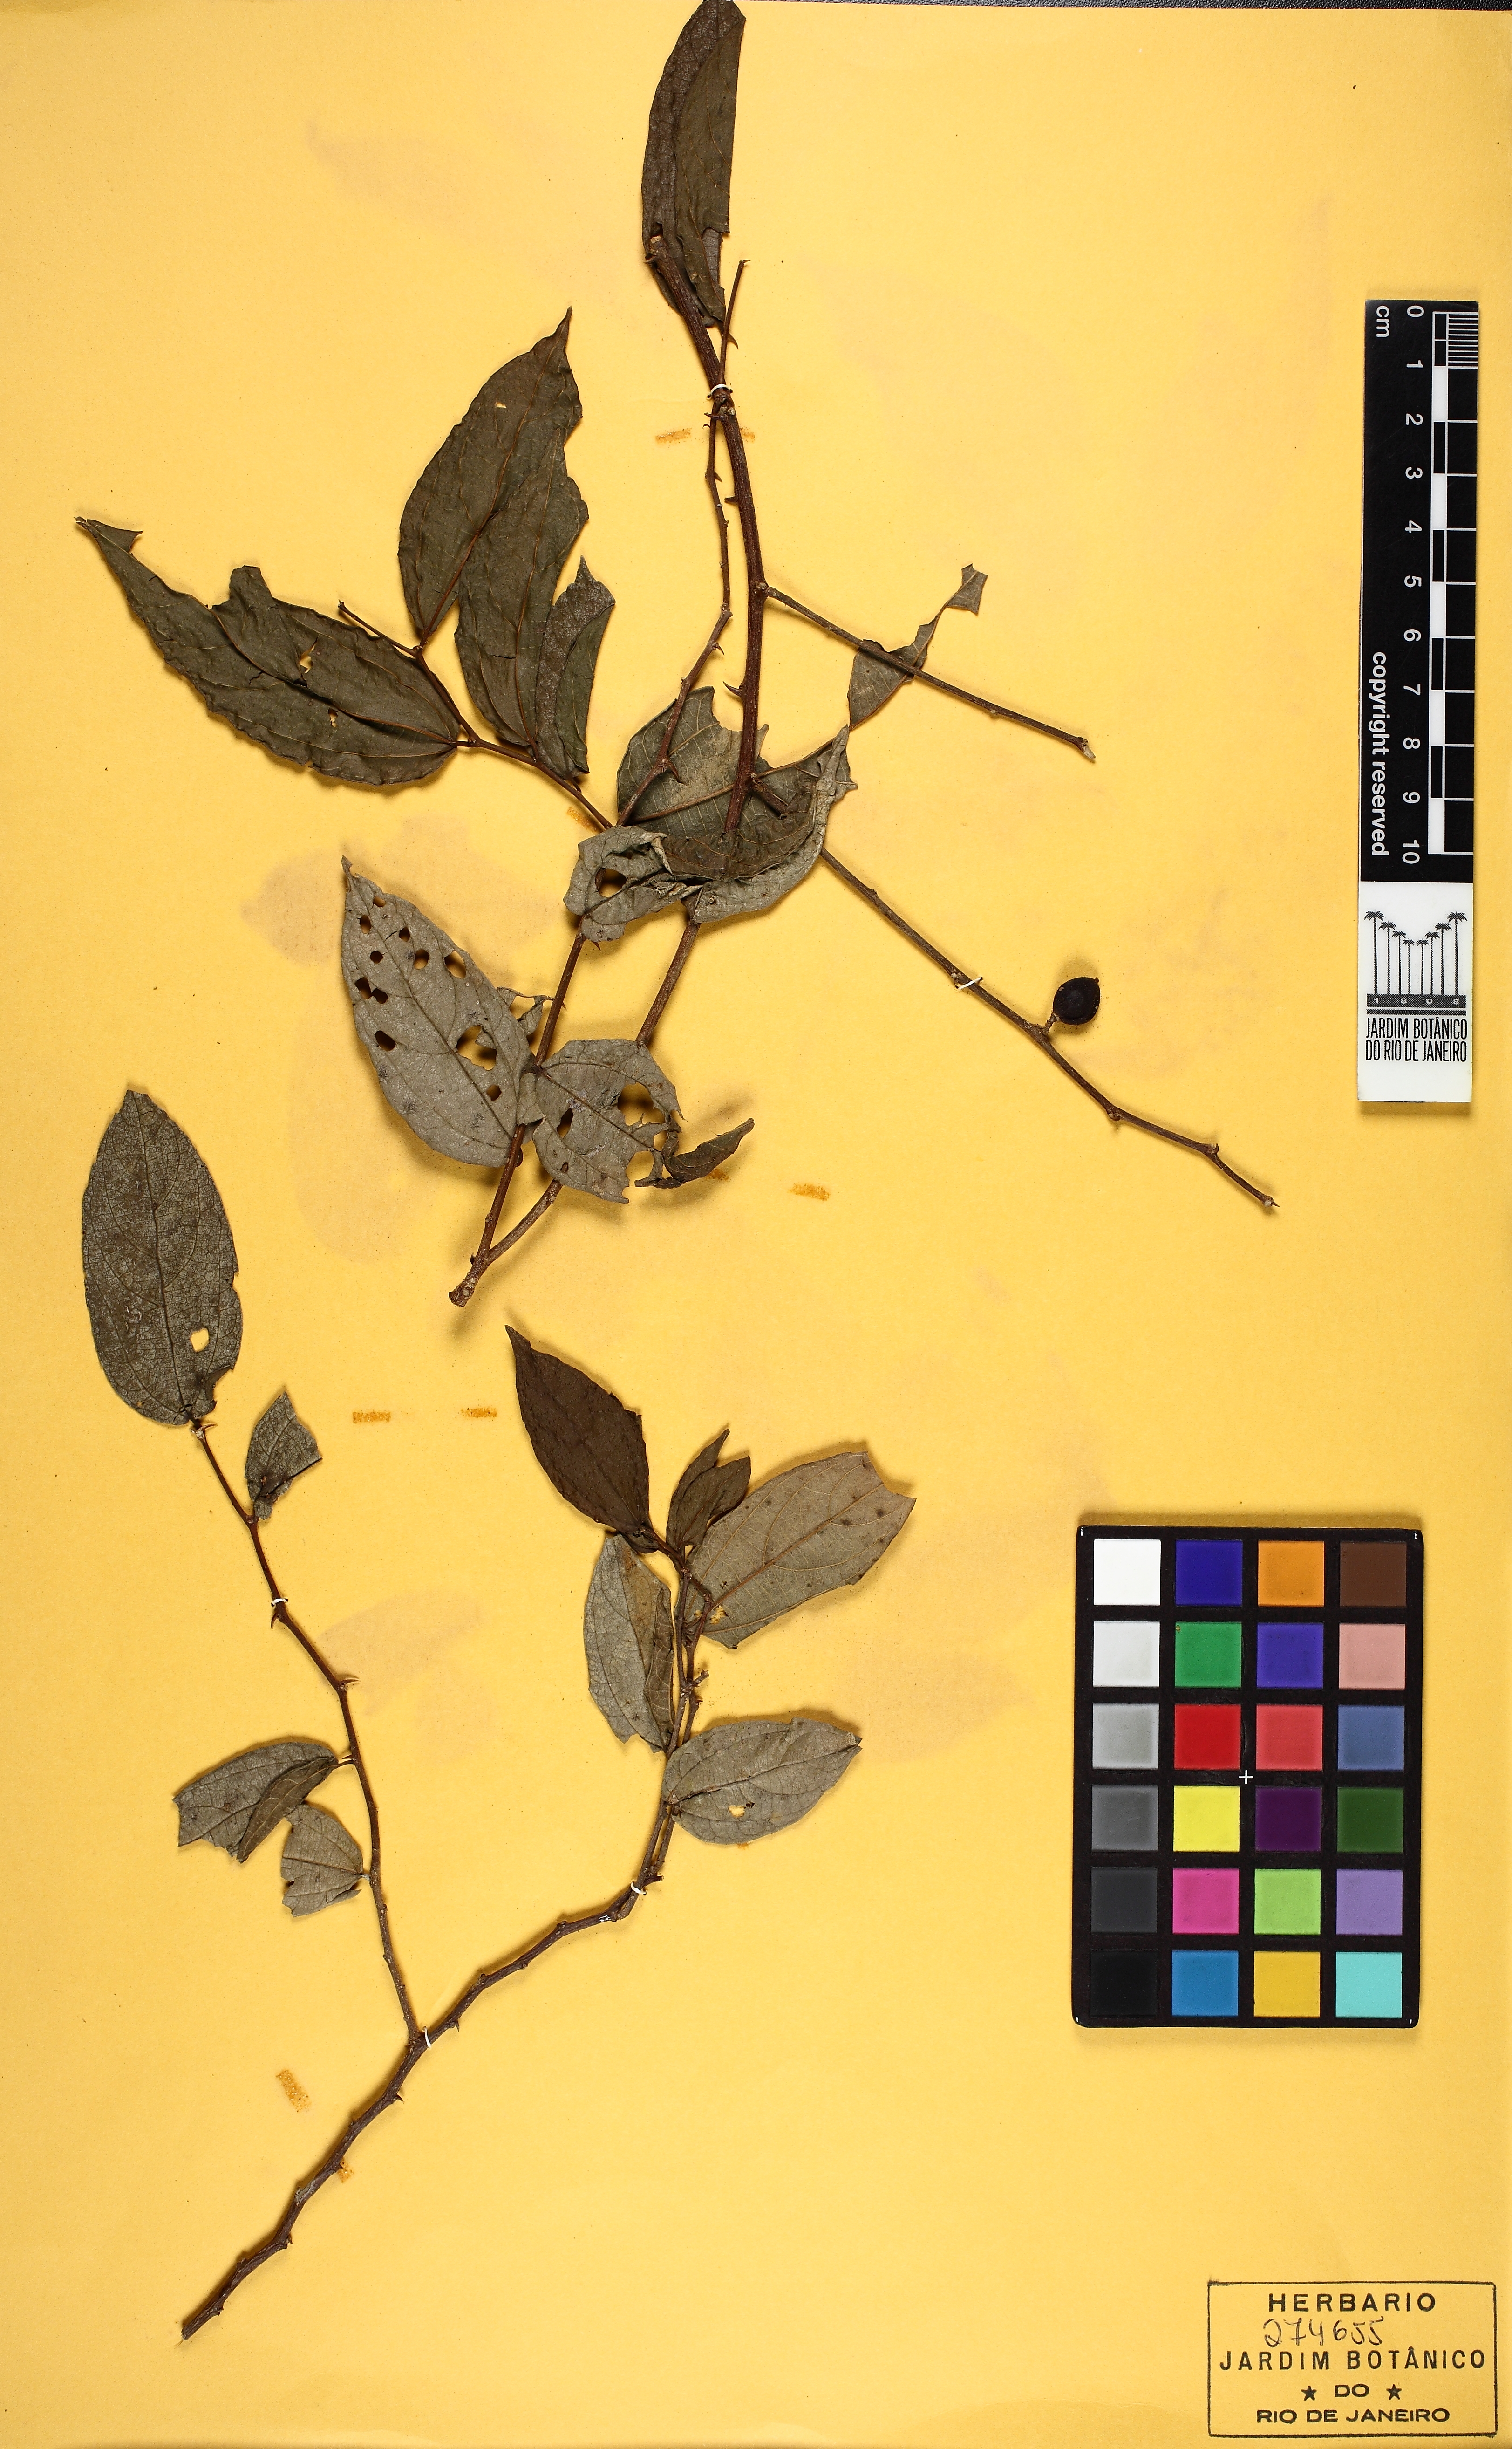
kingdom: Plantae
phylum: Tracheophyta
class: Magnoliopsida
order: Rosales
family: Cannabaceae
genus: Celtis
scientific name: Celtis iguanaea
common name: Iguana hackberry
